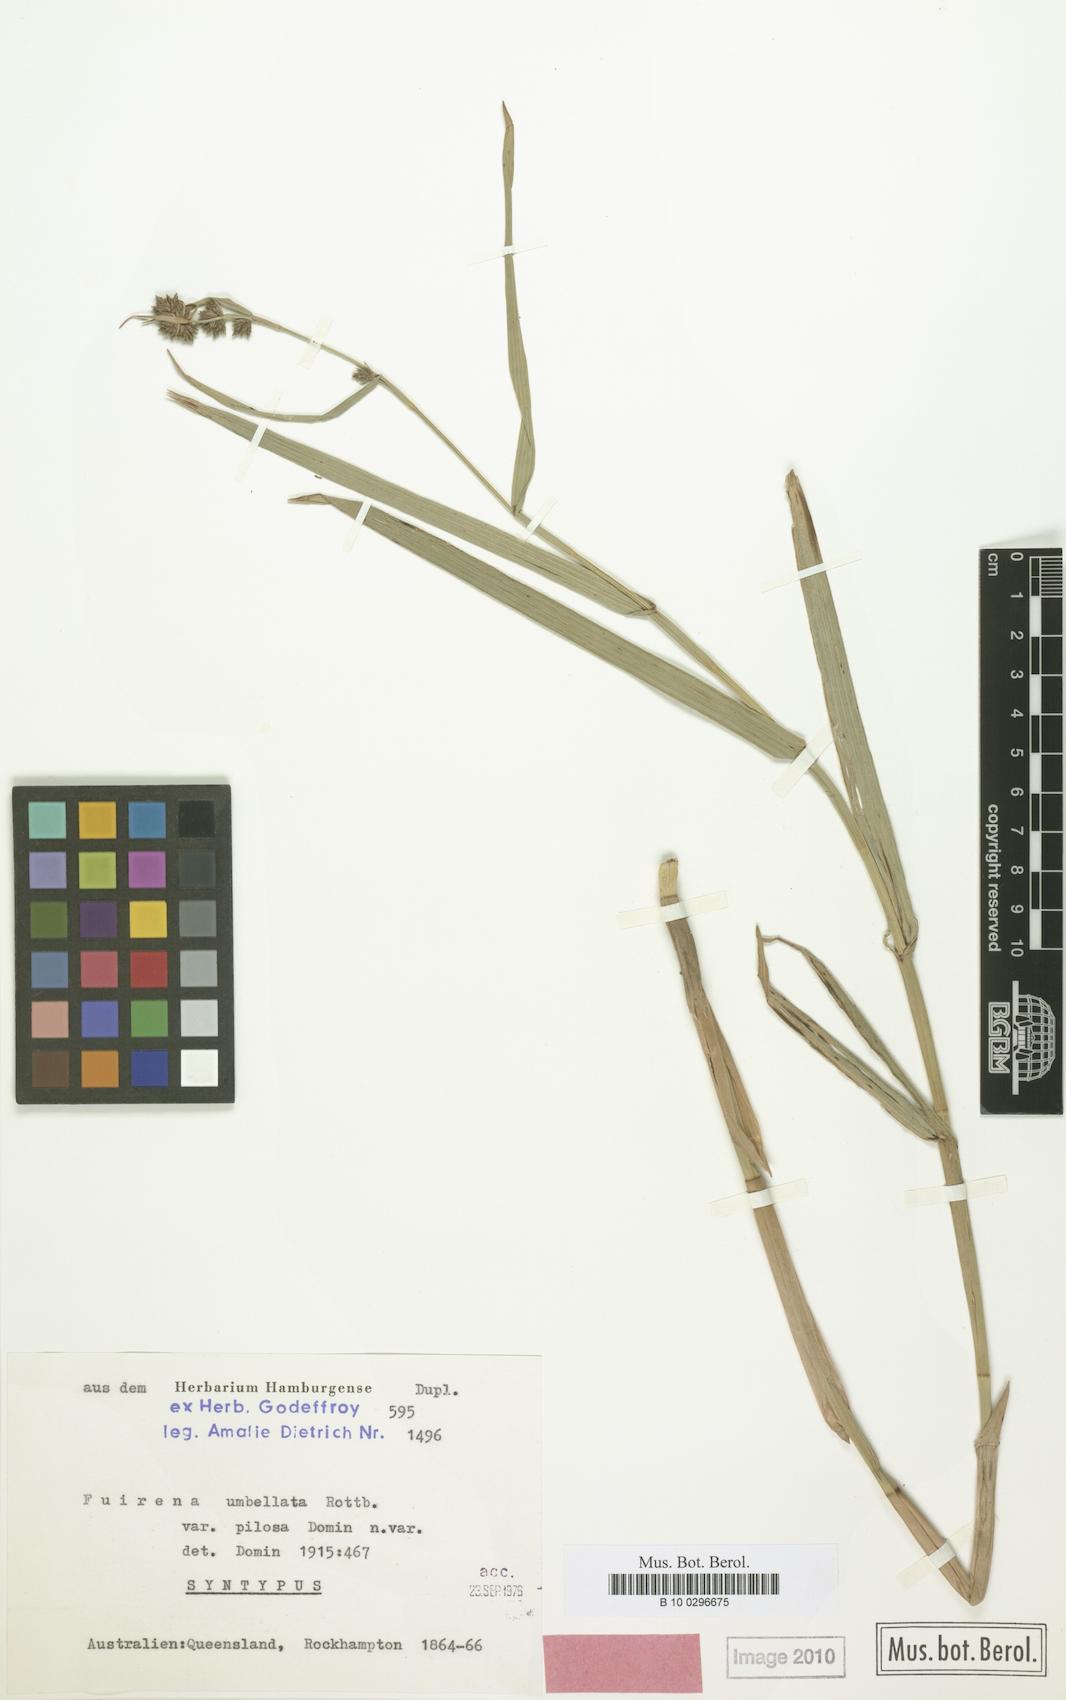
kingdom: Plantae
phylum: Tracheophyta
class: Liliopsida
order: Poales
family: Cyperaceae
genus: Fuirena
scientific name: Fuirena umbellata
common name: Yefen
